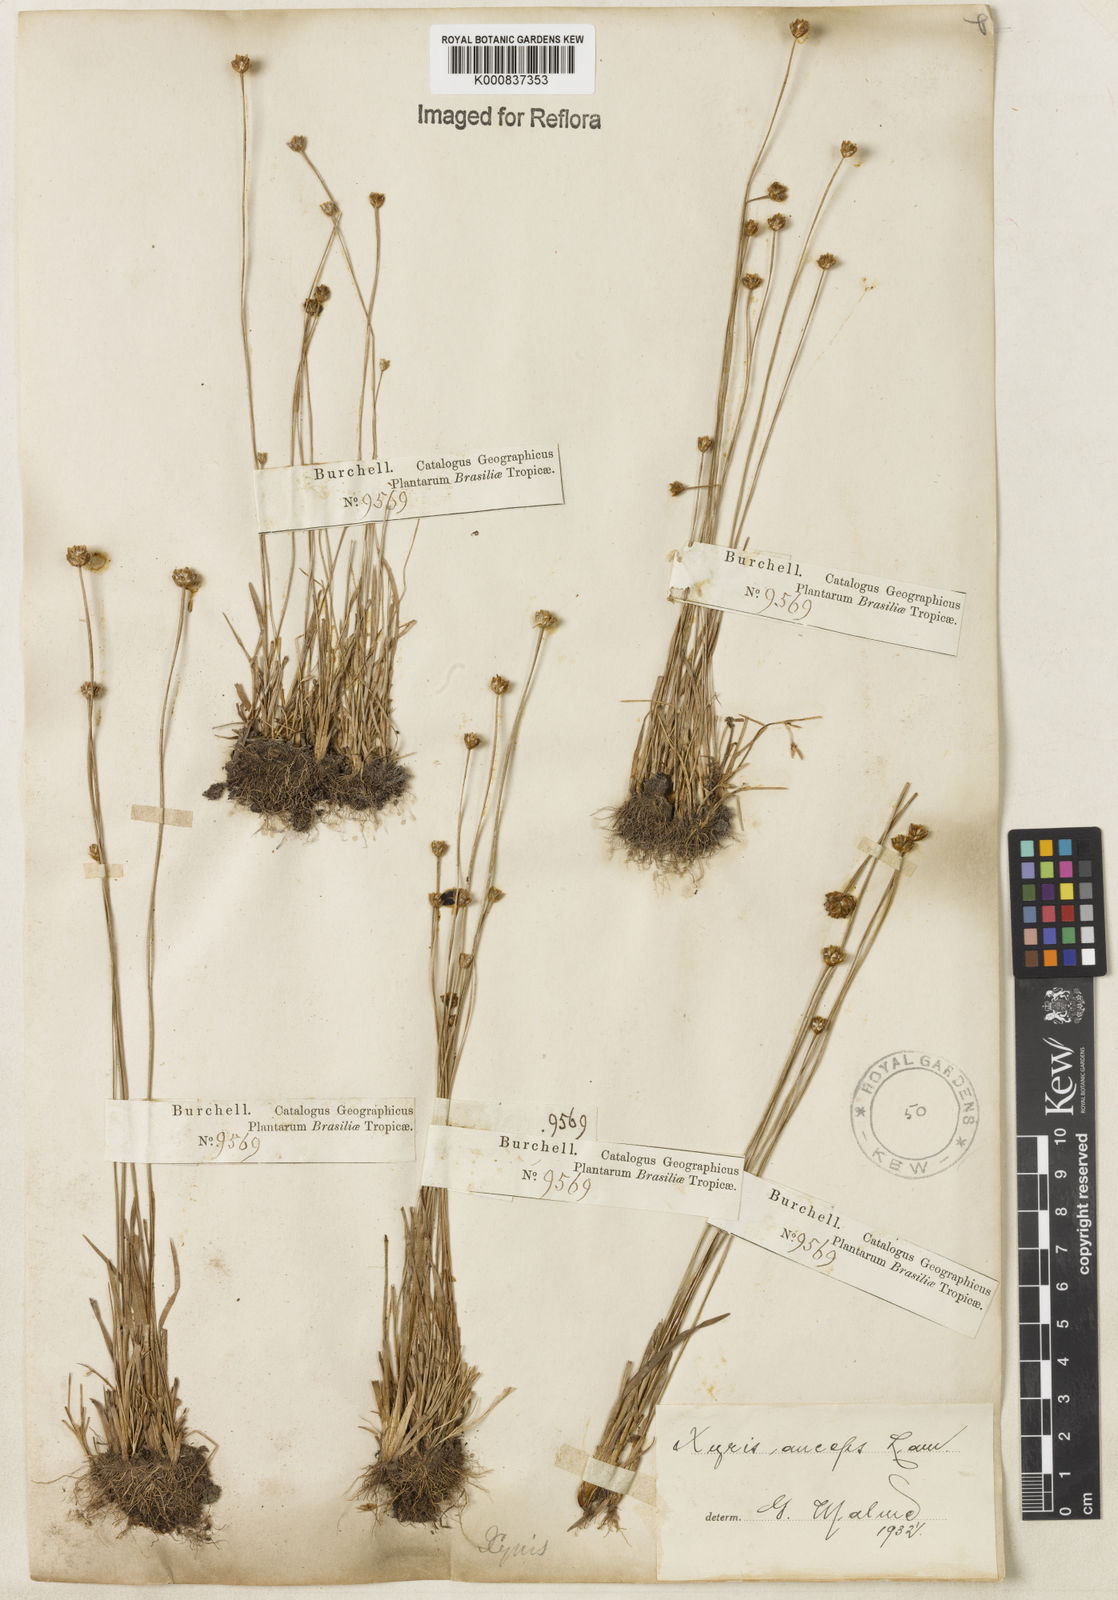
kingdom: Plantae
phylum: Tracheophyta
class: Liliopsida
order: Poales
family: Xyridaceae
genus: Xyris
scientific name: Xyris
